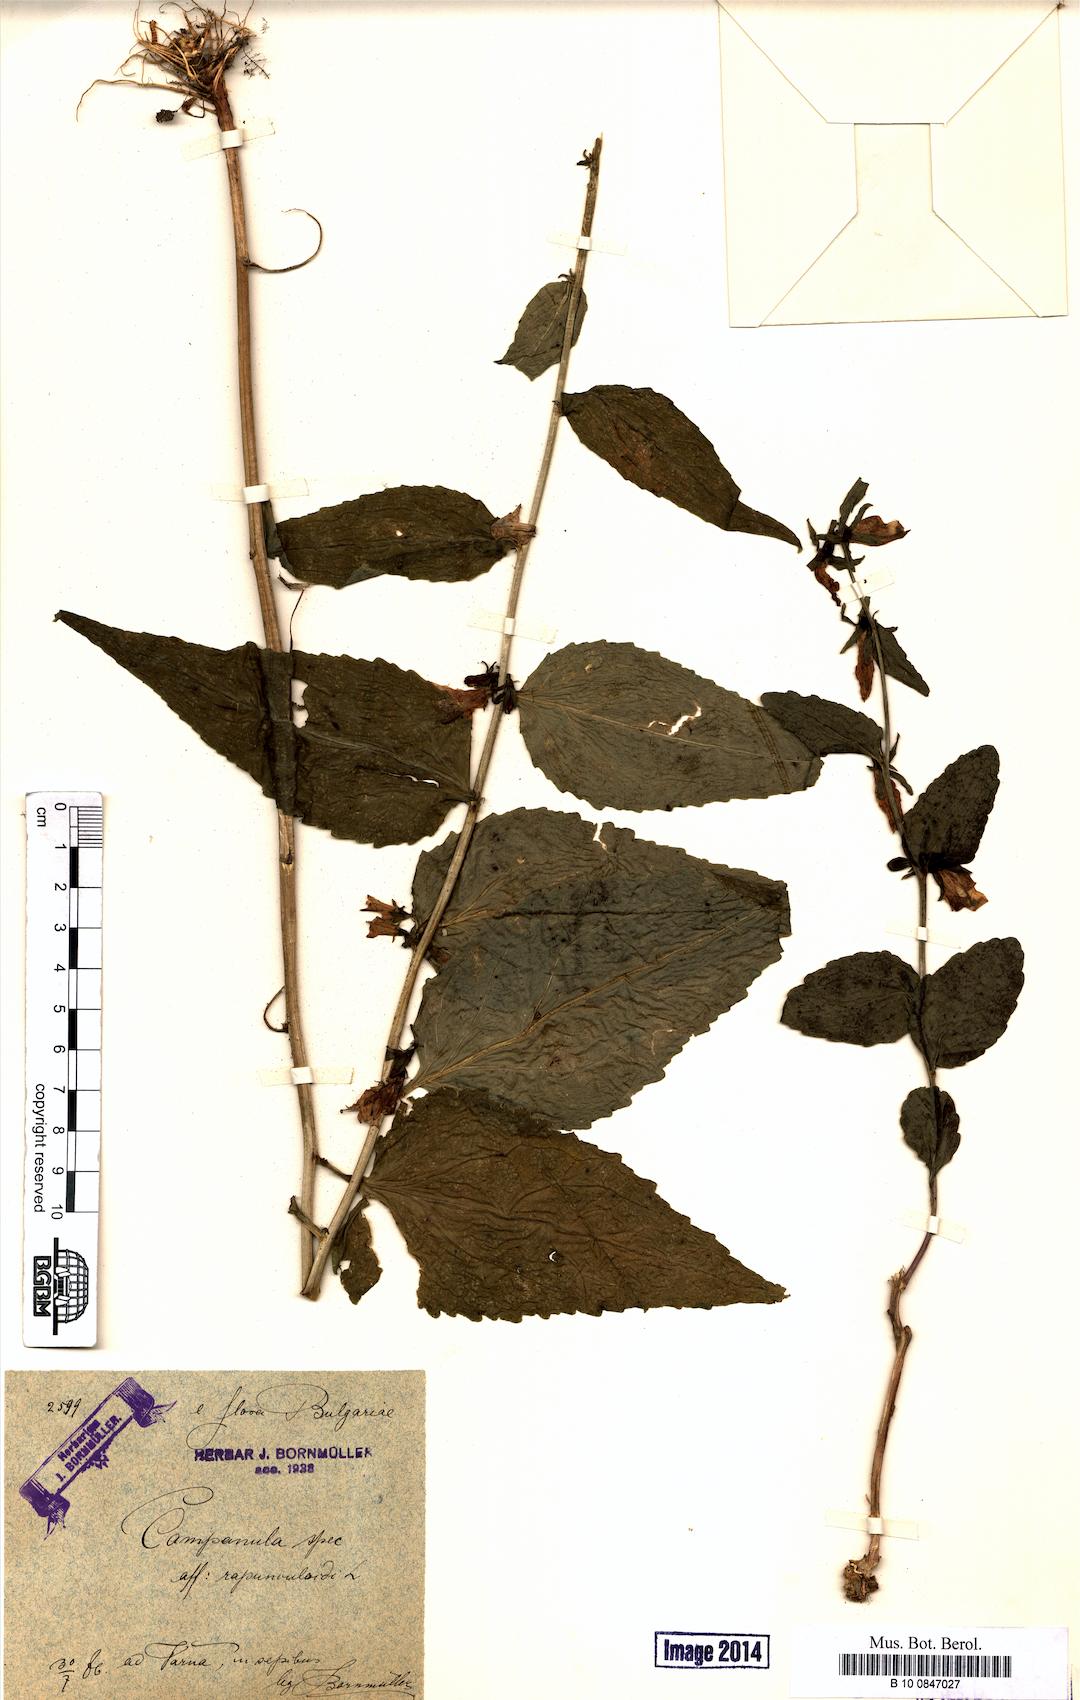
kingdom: Plantae
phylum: Tracheophyta
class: Magnoliopsida
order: Asterales
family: Campanulaceae
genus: Campanula
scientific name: Campanula rapunculoides
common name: Creeping bellflower
